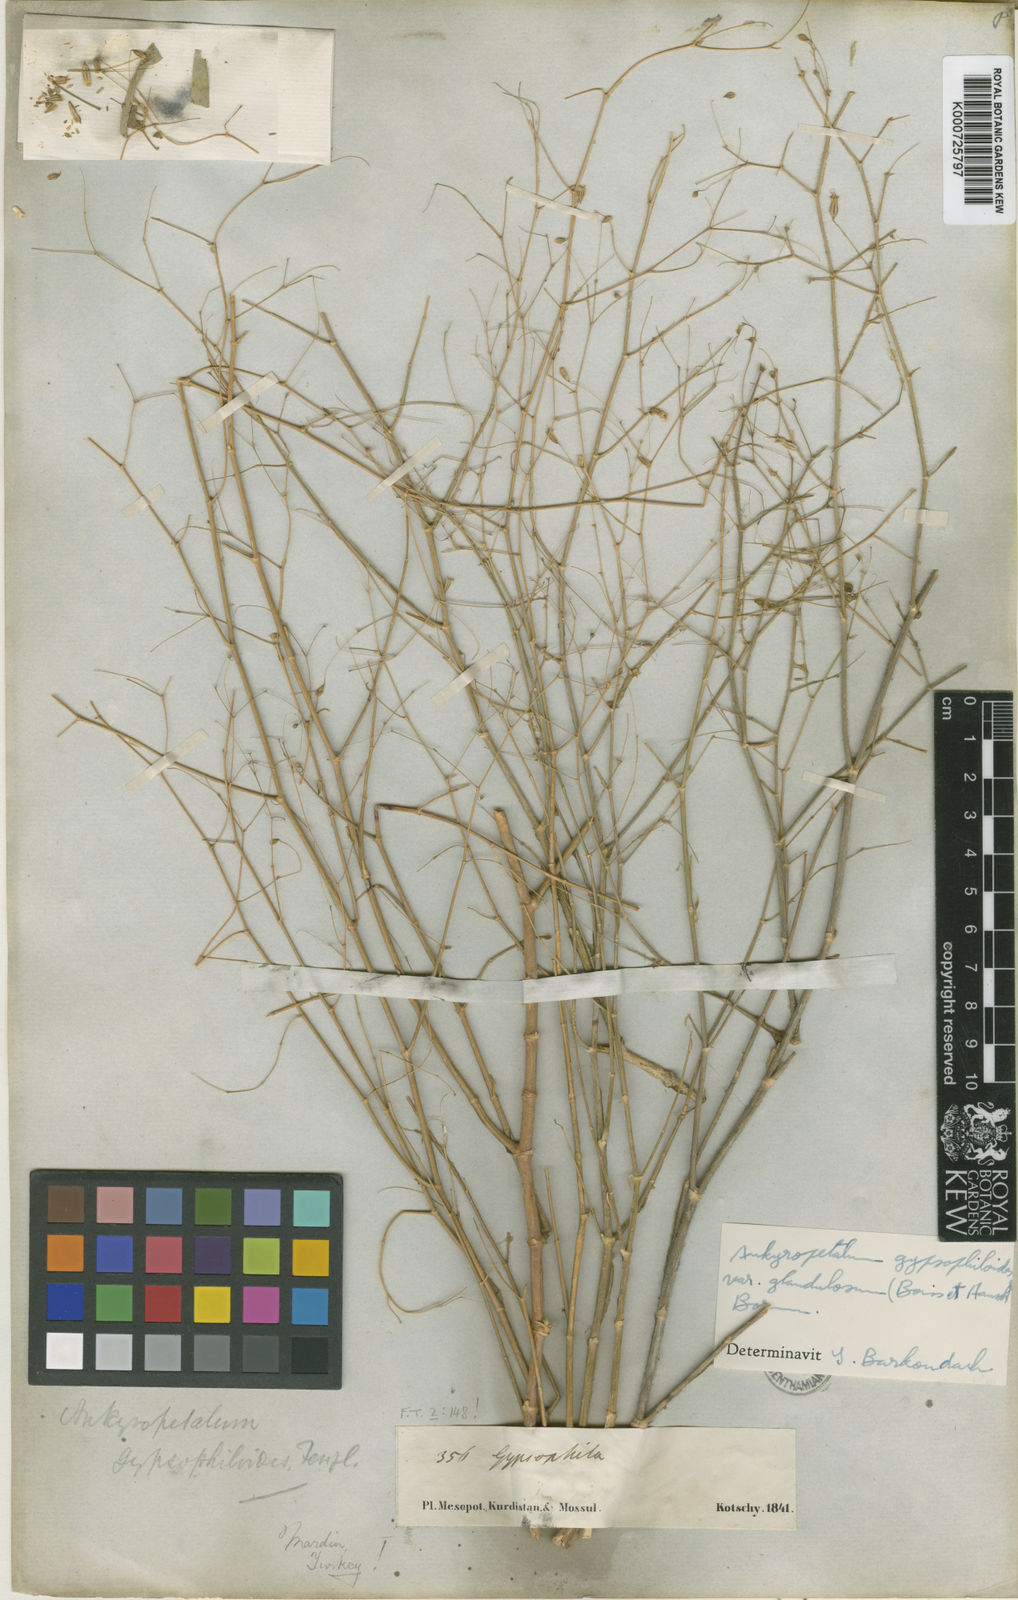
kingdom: Plantae
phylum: Tracheophyta
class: Magnoliopsida
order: Caryophyllales
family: Caryophyllaceae
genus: Mesostemma
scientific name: Mesostemma gypsophiloides
